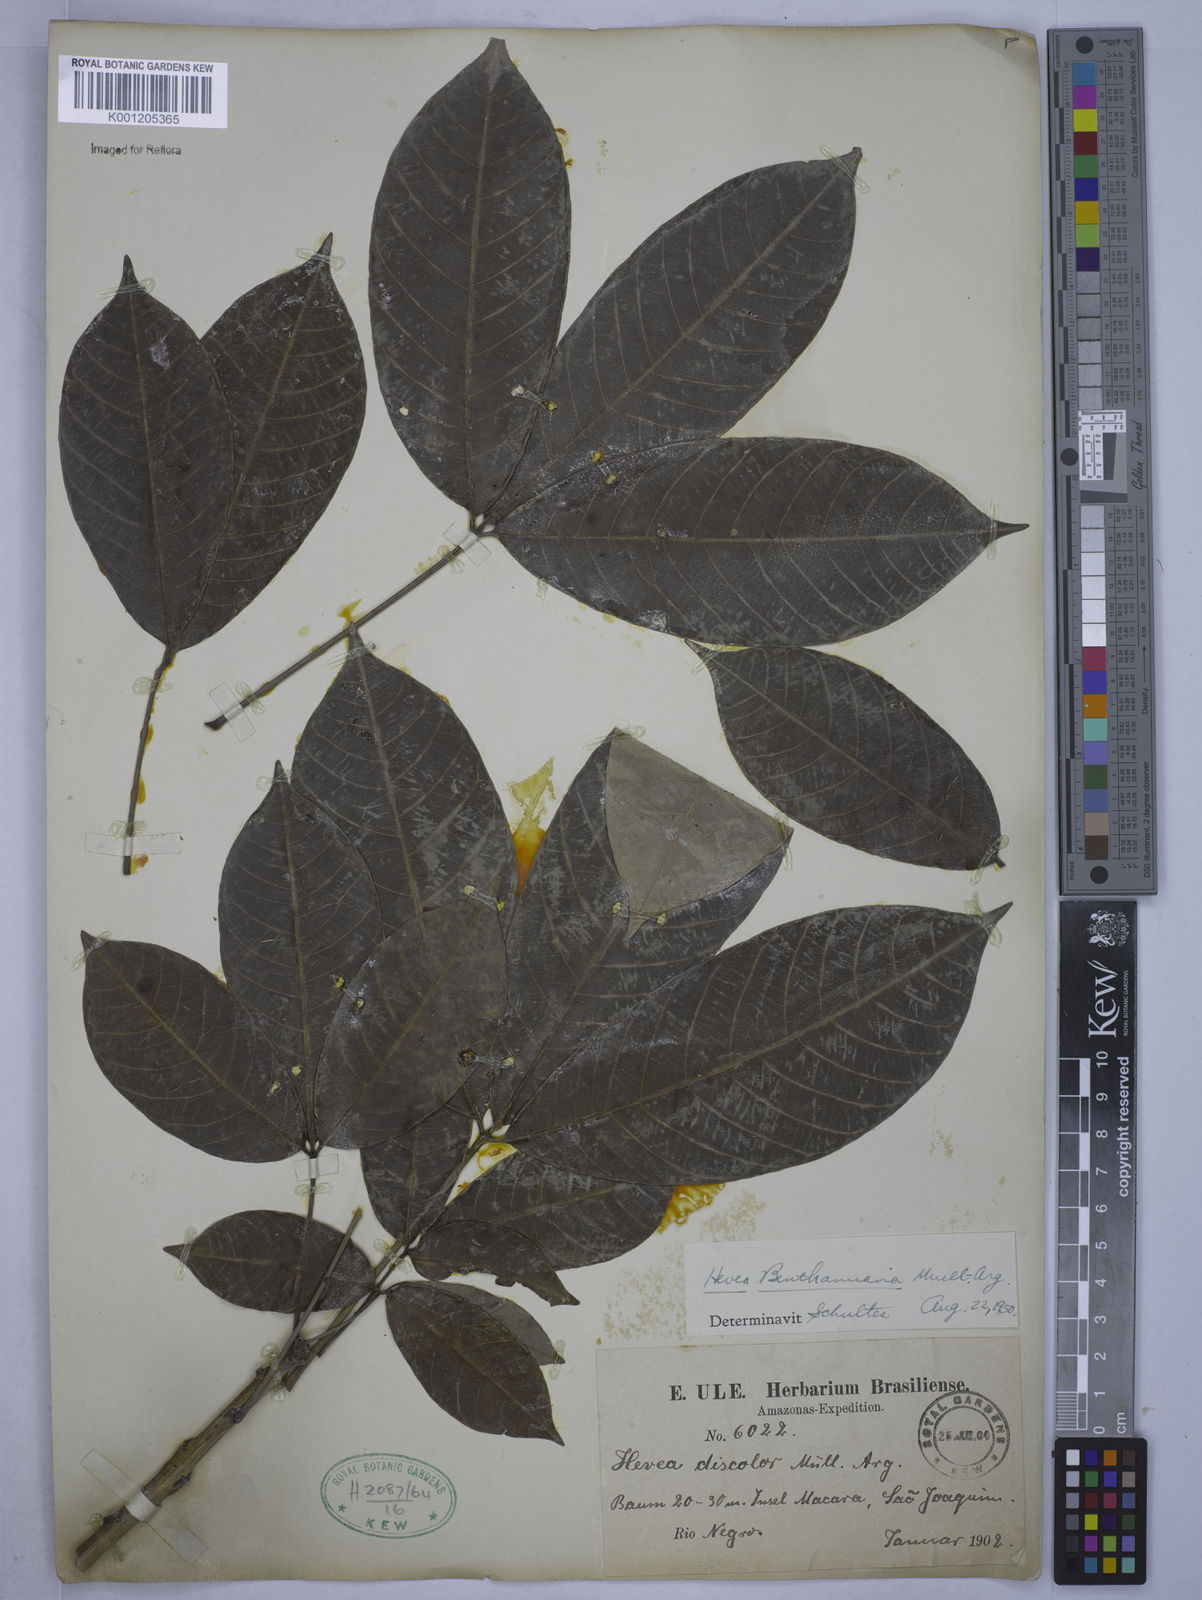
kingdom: Plantae
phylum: Tracheophyta
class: Magnoliopsida
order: Malpighiales
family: Euphorbiaceae
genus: Hevea
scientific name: Hevea
